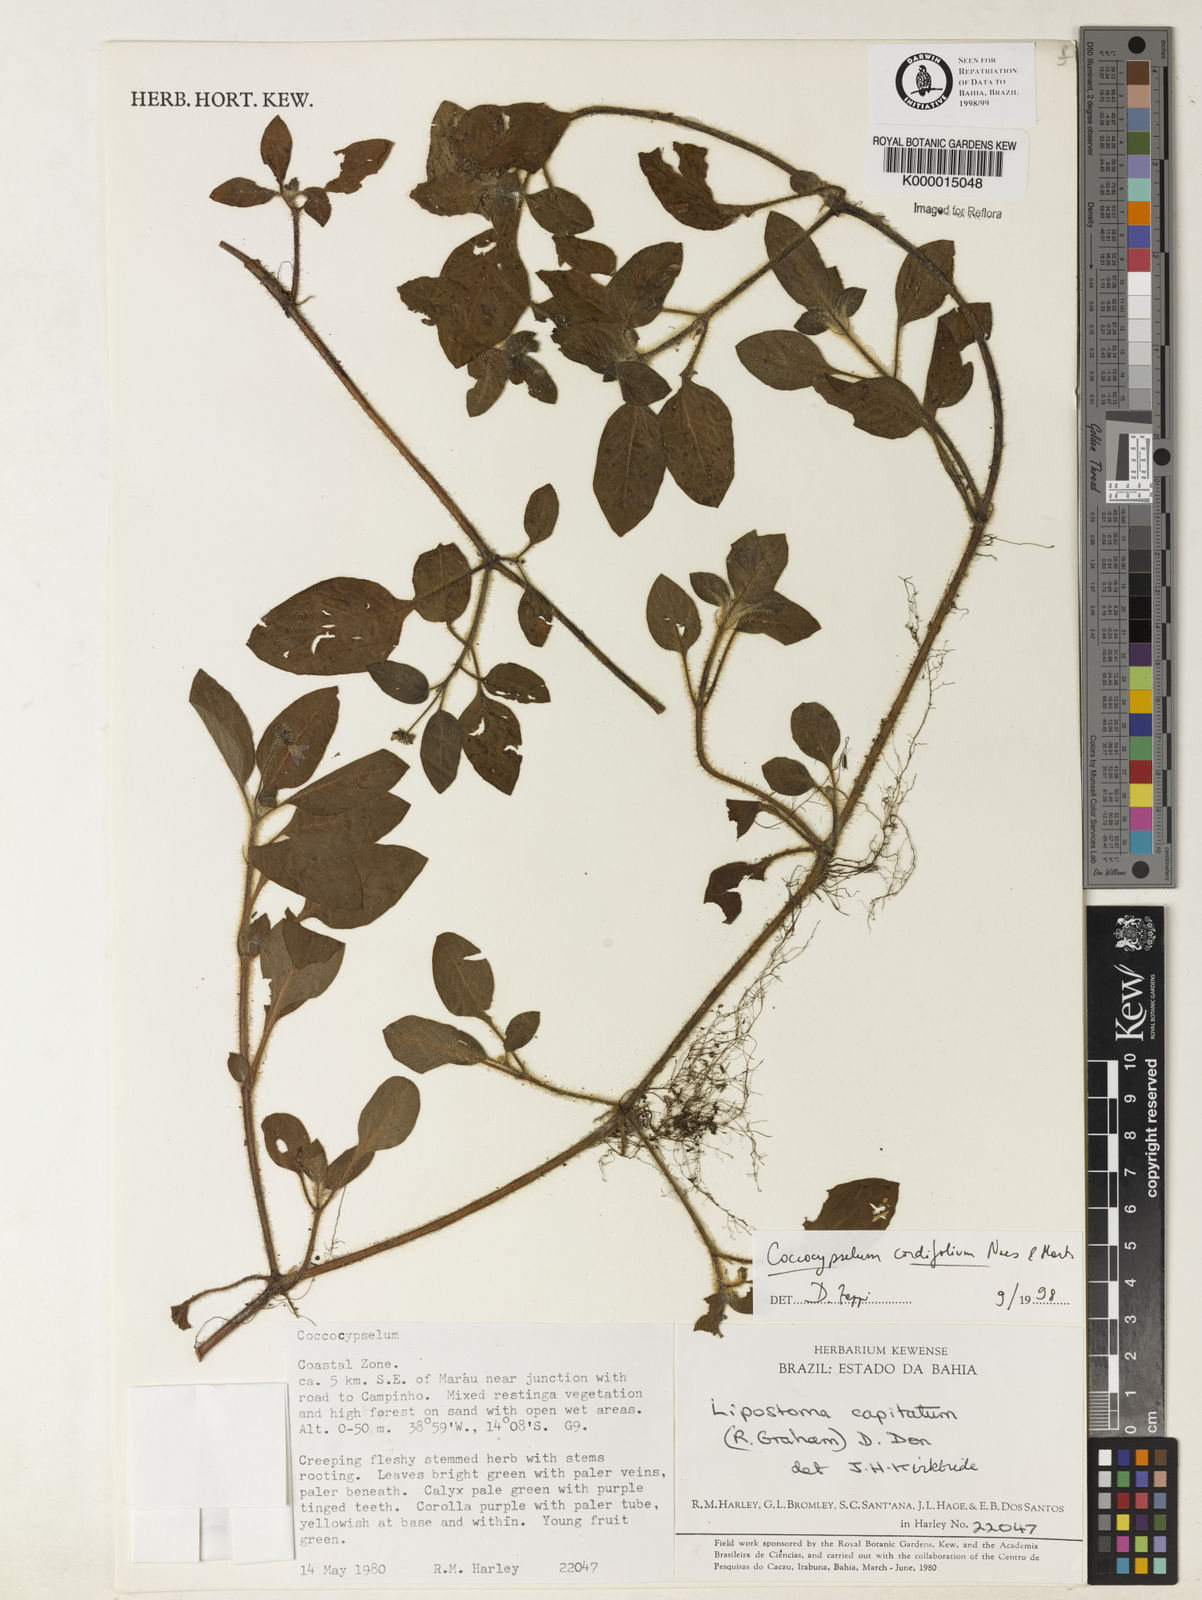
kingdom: Plantae
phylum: Tracheophyta
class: Magnoliopsida
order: Gentianales
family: Rubiaceae
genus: Coccocypselum
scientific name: Coccocypselum cordifolium
